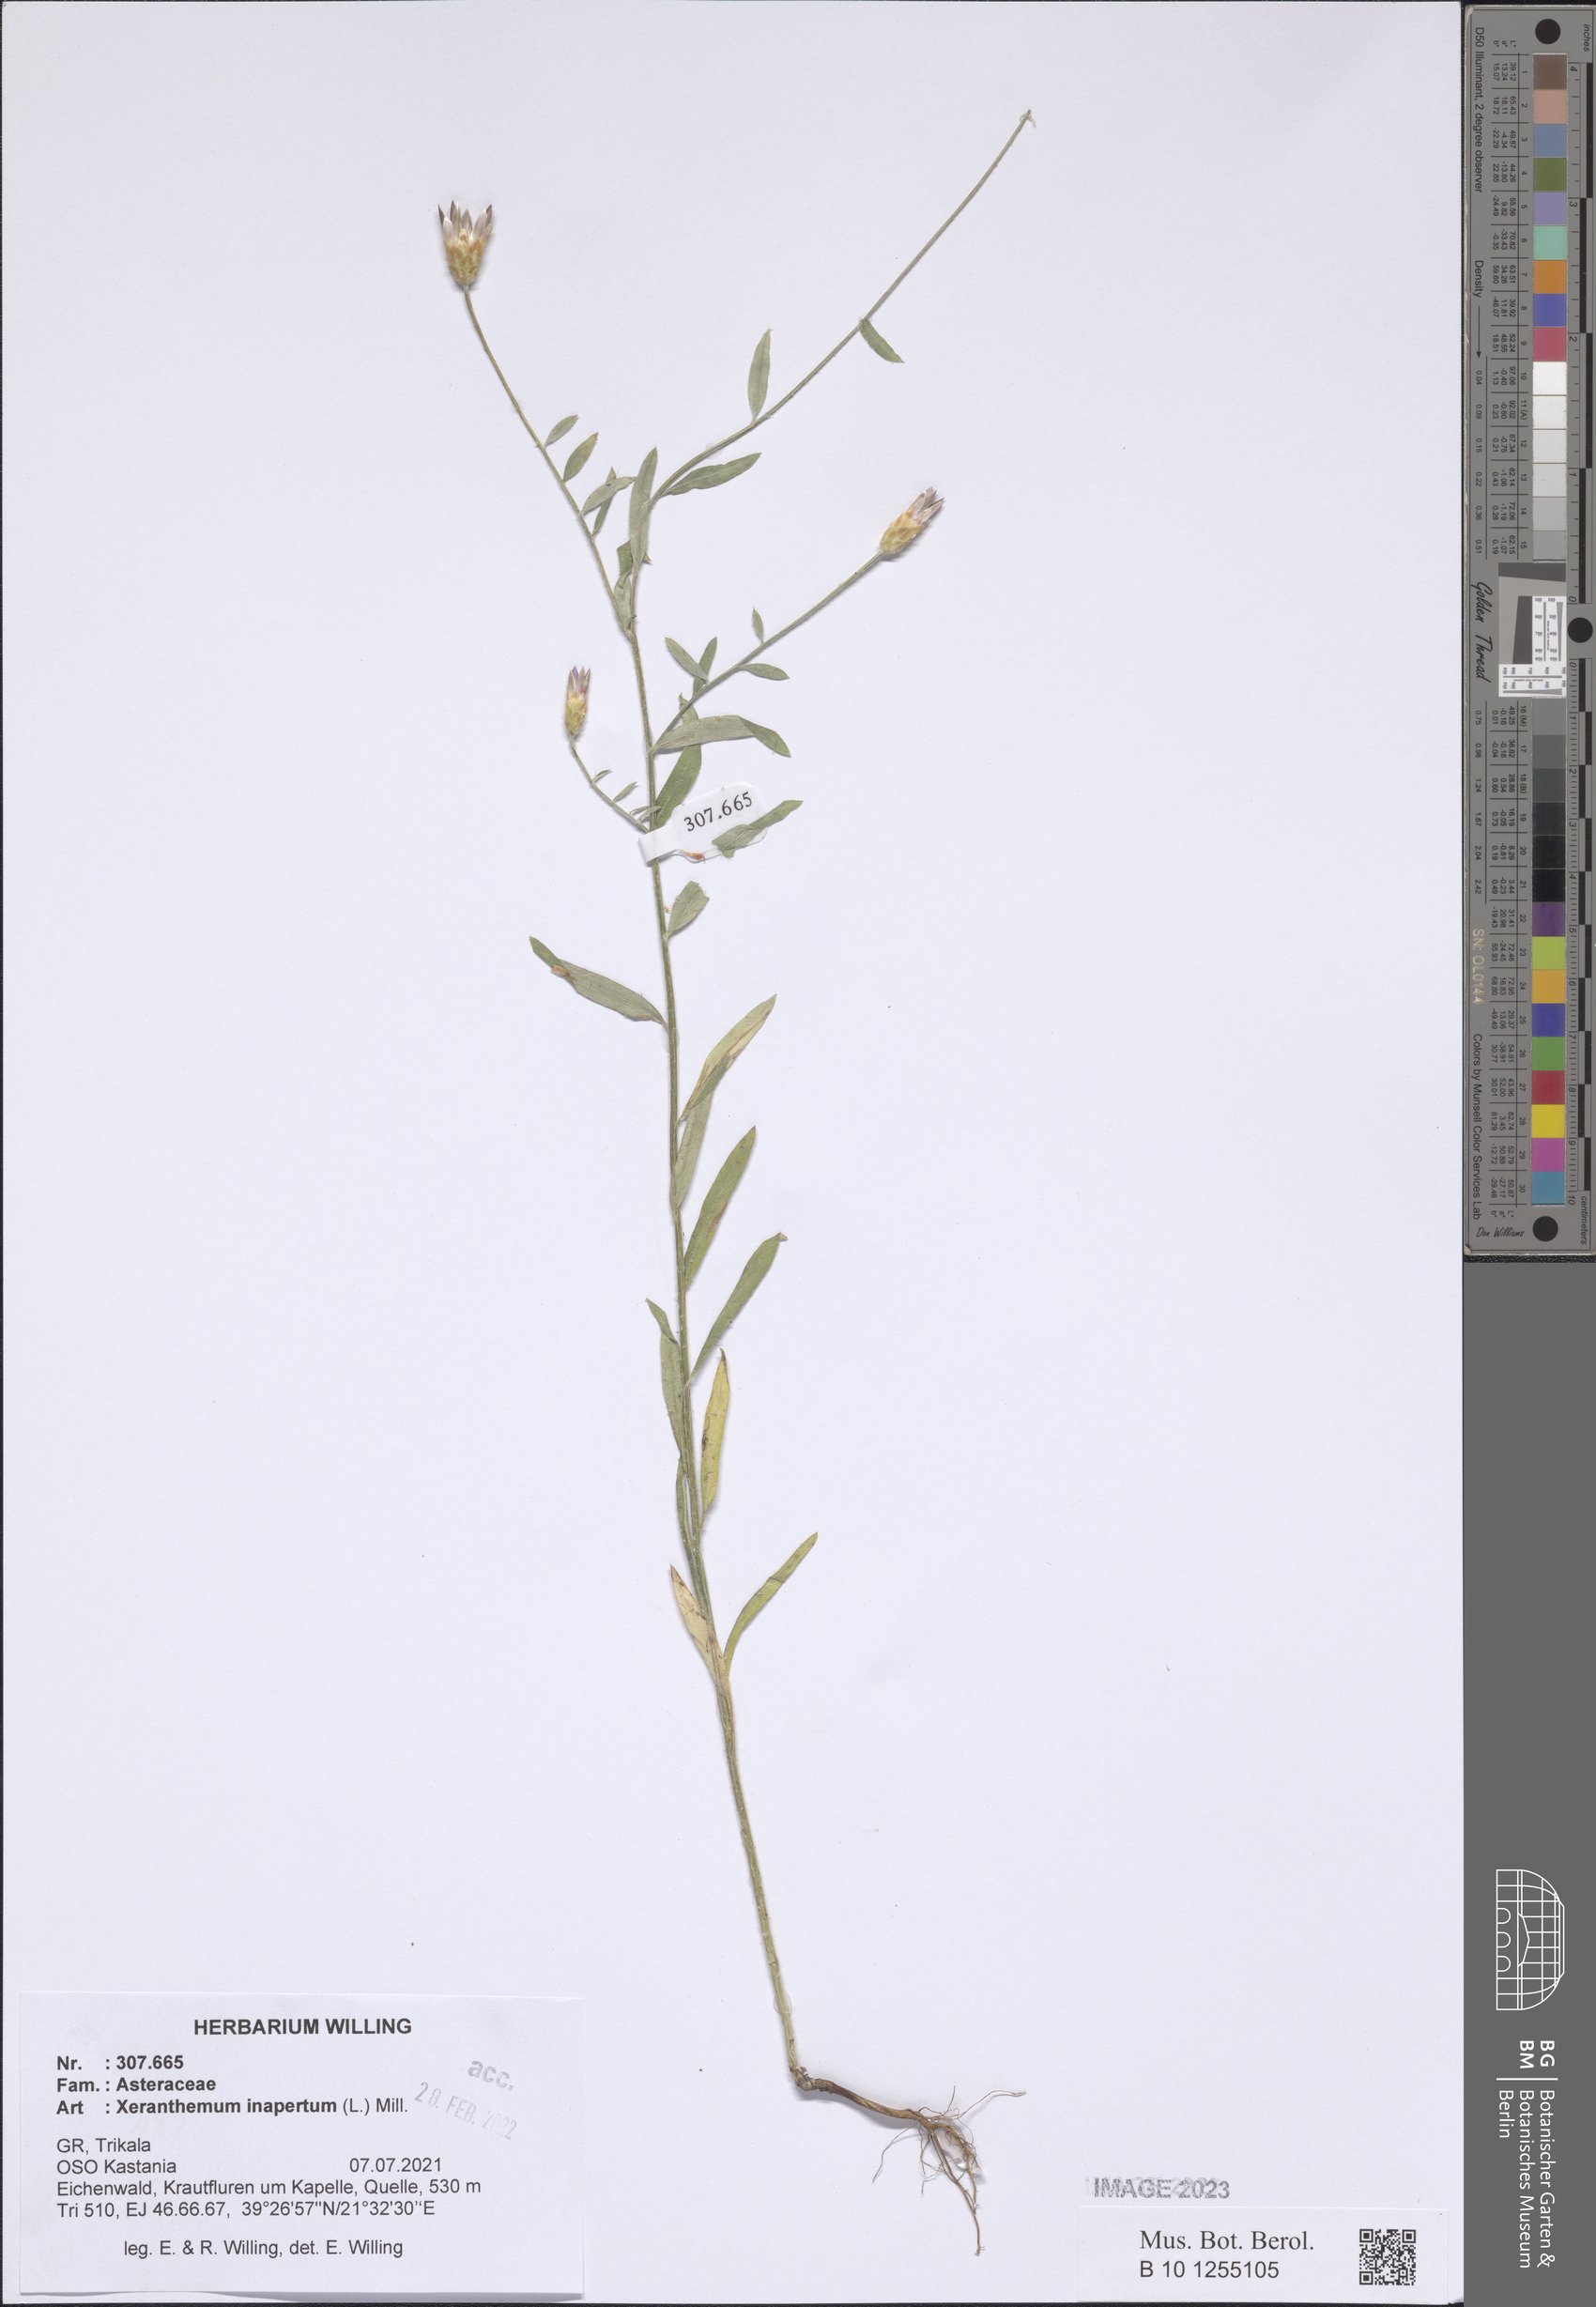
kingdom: Plantae
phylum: Tracheophyta
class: Magnoliopsida
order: Asterales
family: Asteraceae
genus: Xeranthemum
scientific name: Xeranthemum inapertum
